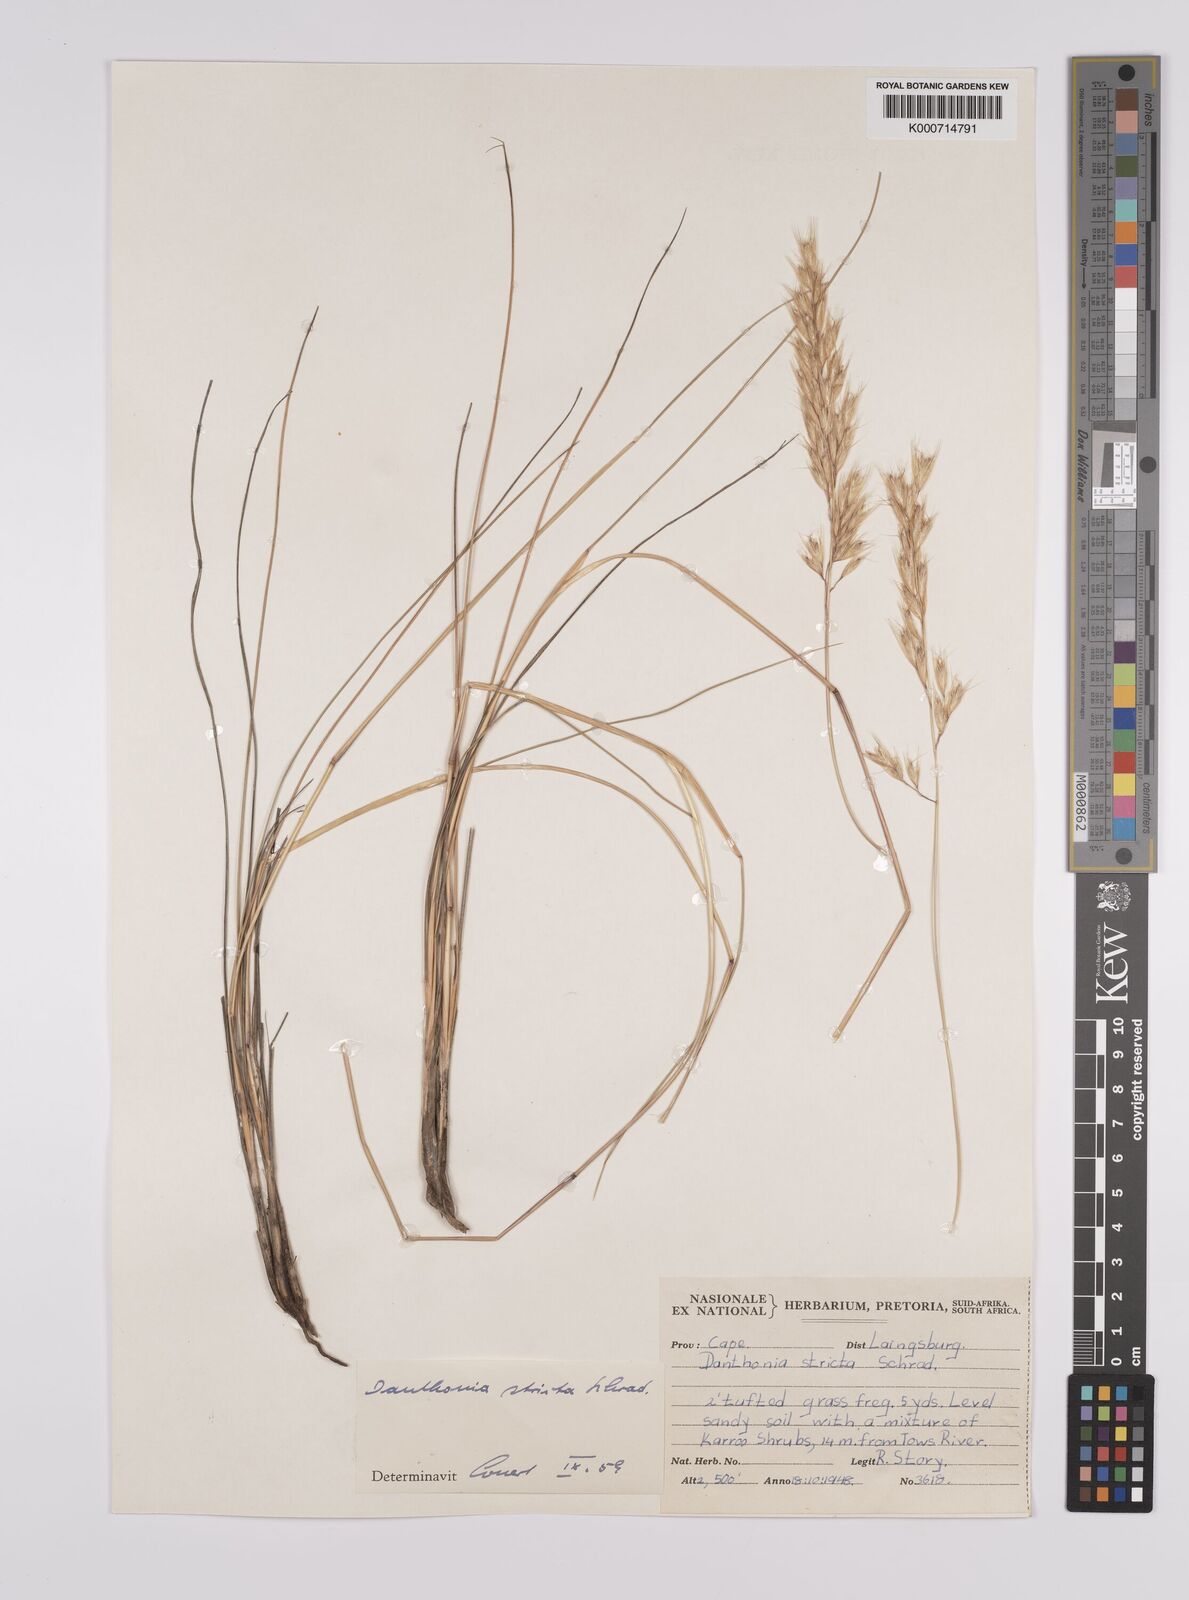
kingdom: Plantae
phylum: Tracheophyta
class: Liliopsida
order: Poales
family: Poaceae
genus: Rytidosperma
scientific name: Rytidosperma
